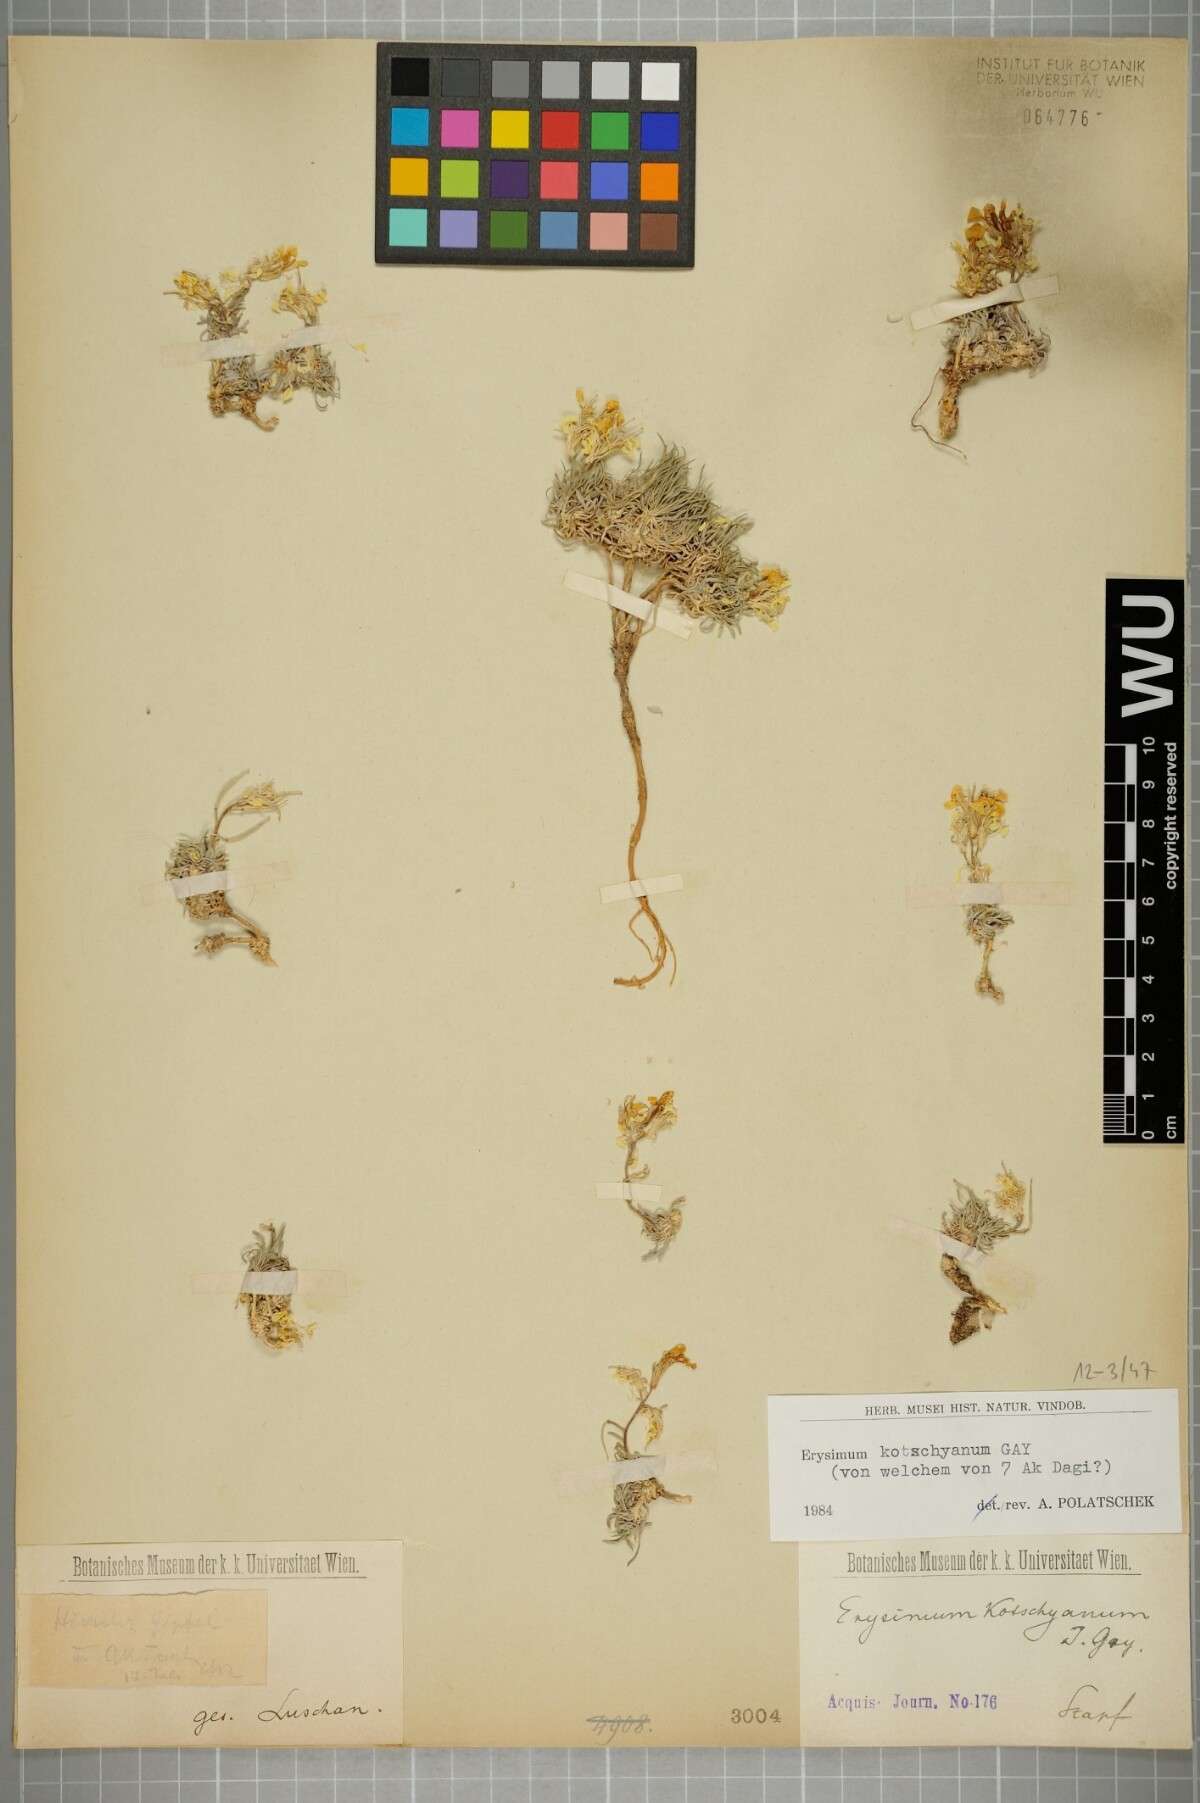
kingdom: Plantae
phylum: Tracheophyta
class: Magnoliopsida
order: Brassicales
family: Brassicaceae
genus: Erysimum
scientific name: Erysimum kotschyanum
